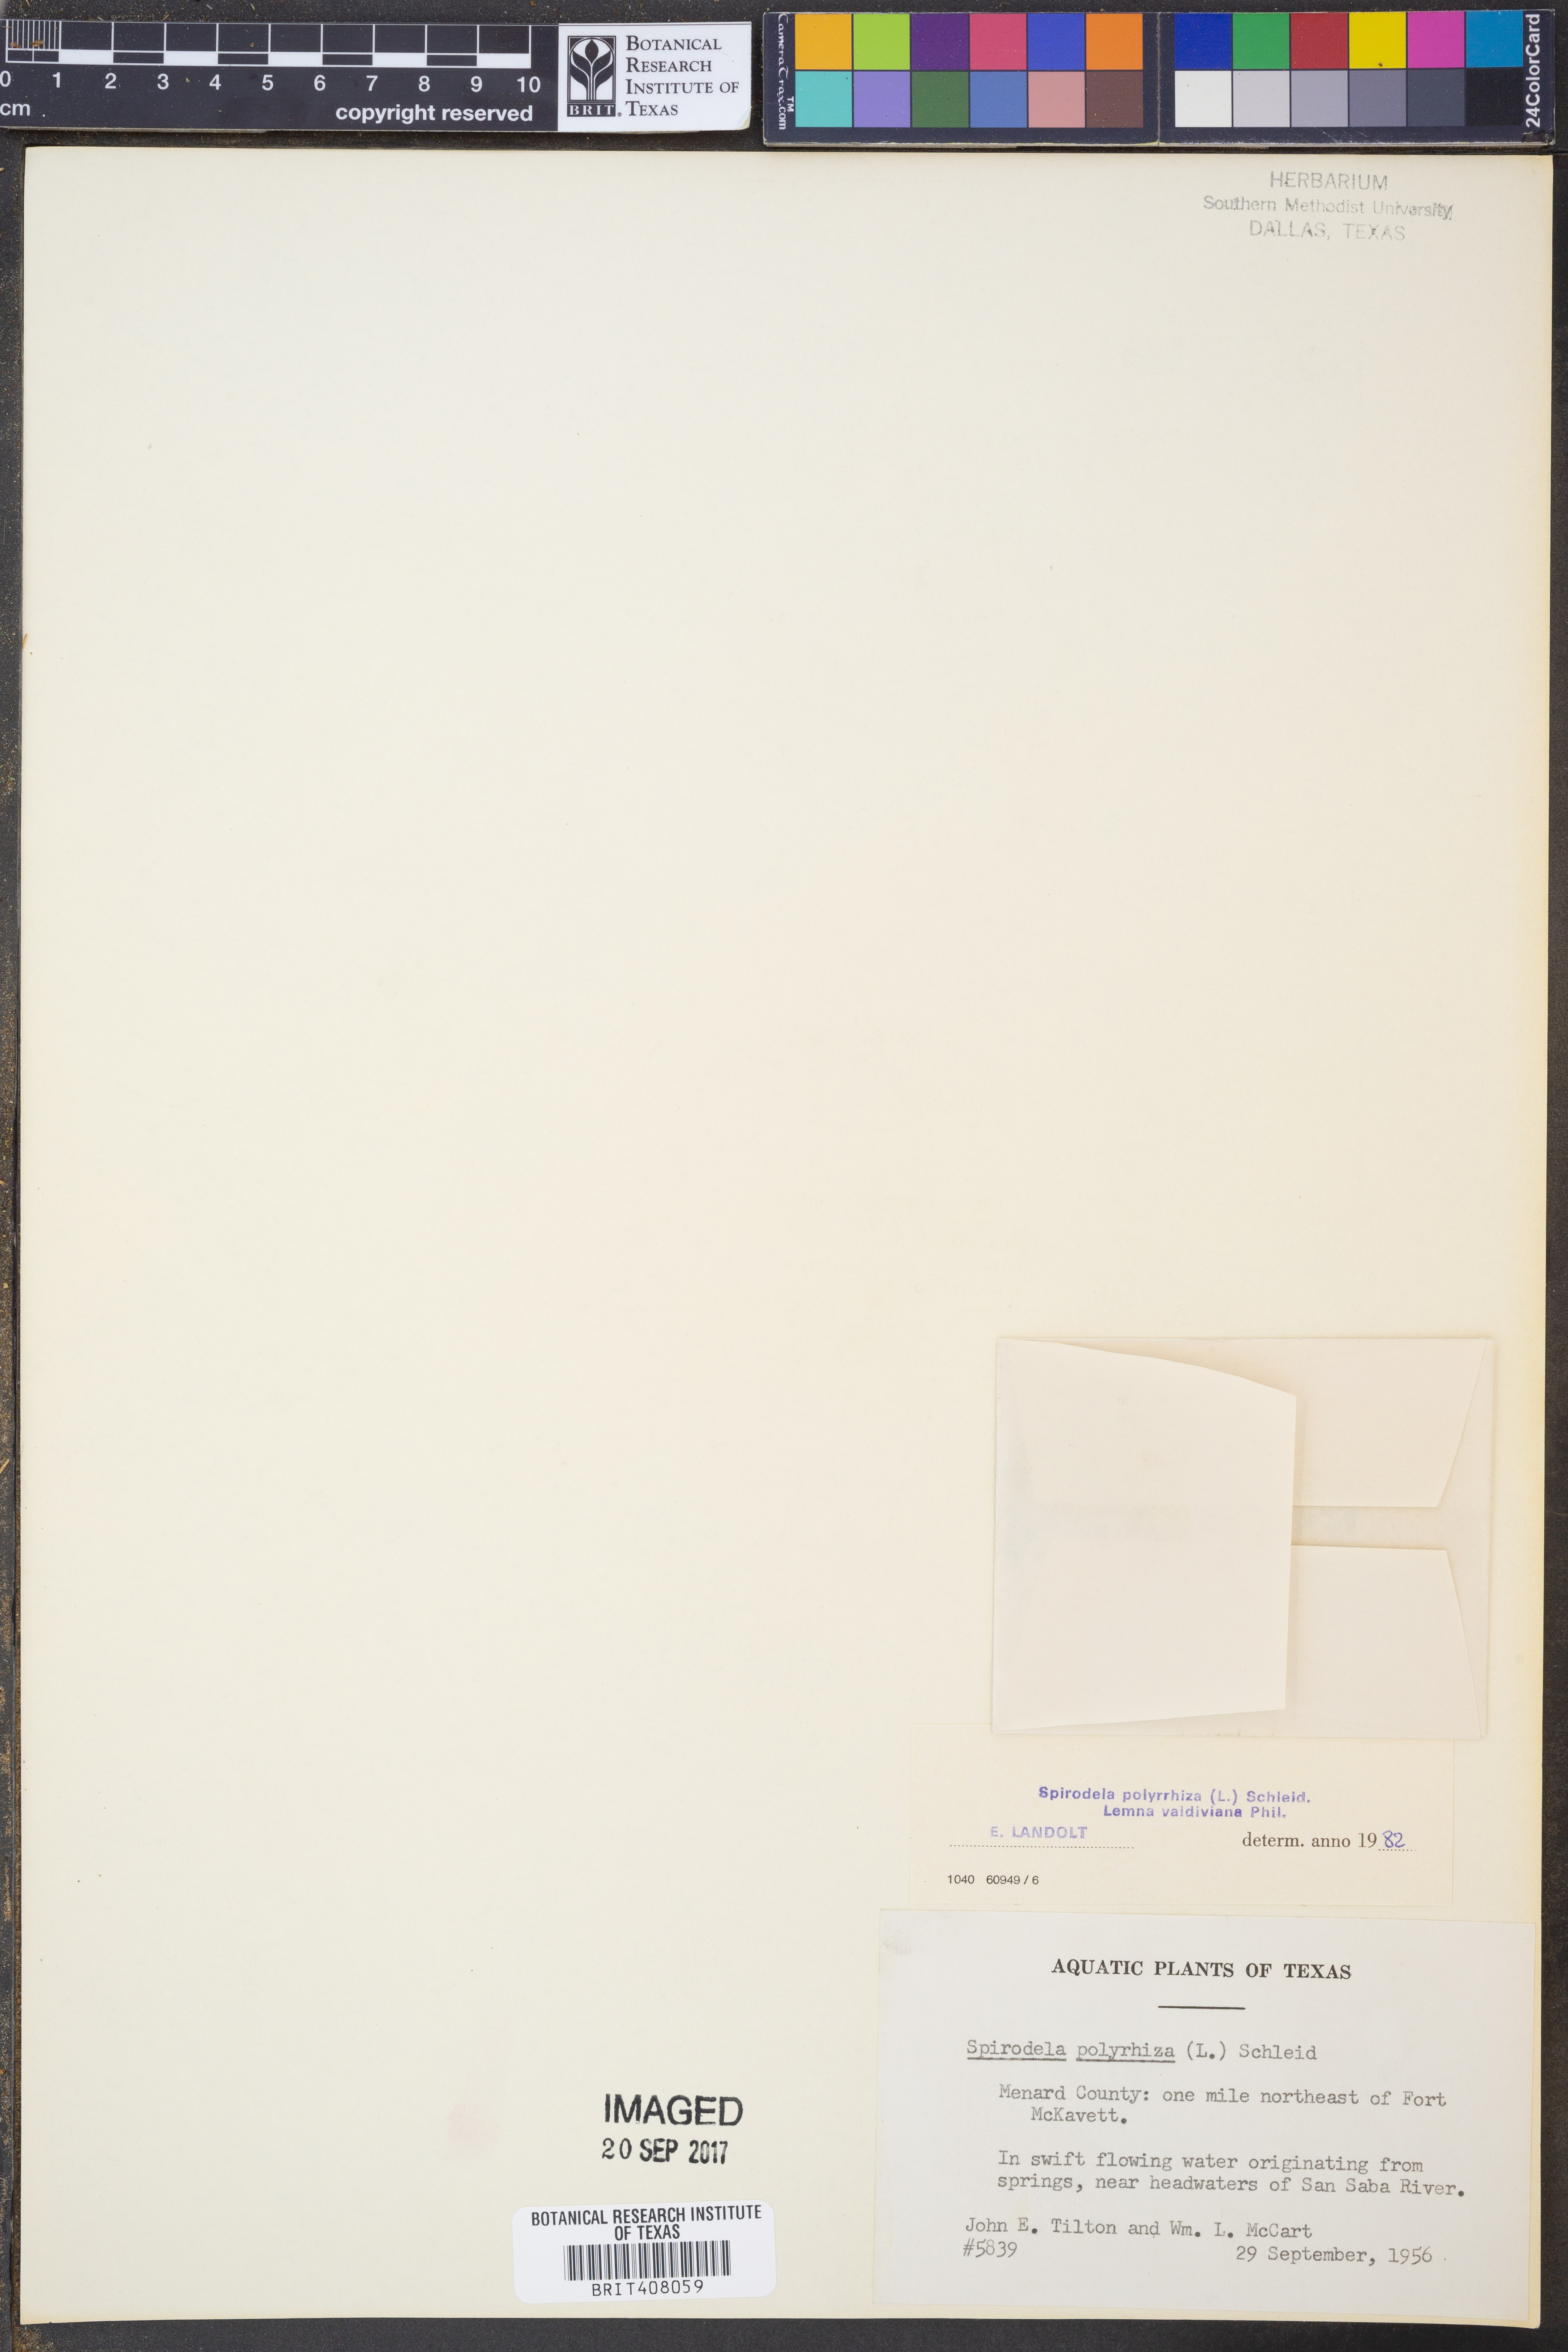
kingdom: Plantae
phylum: Tracheophyta
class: Liliopsida
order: Alismatales
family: Araceae
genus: Spirodela
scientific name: Spirodela polyrhiza
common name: Great duckweed
